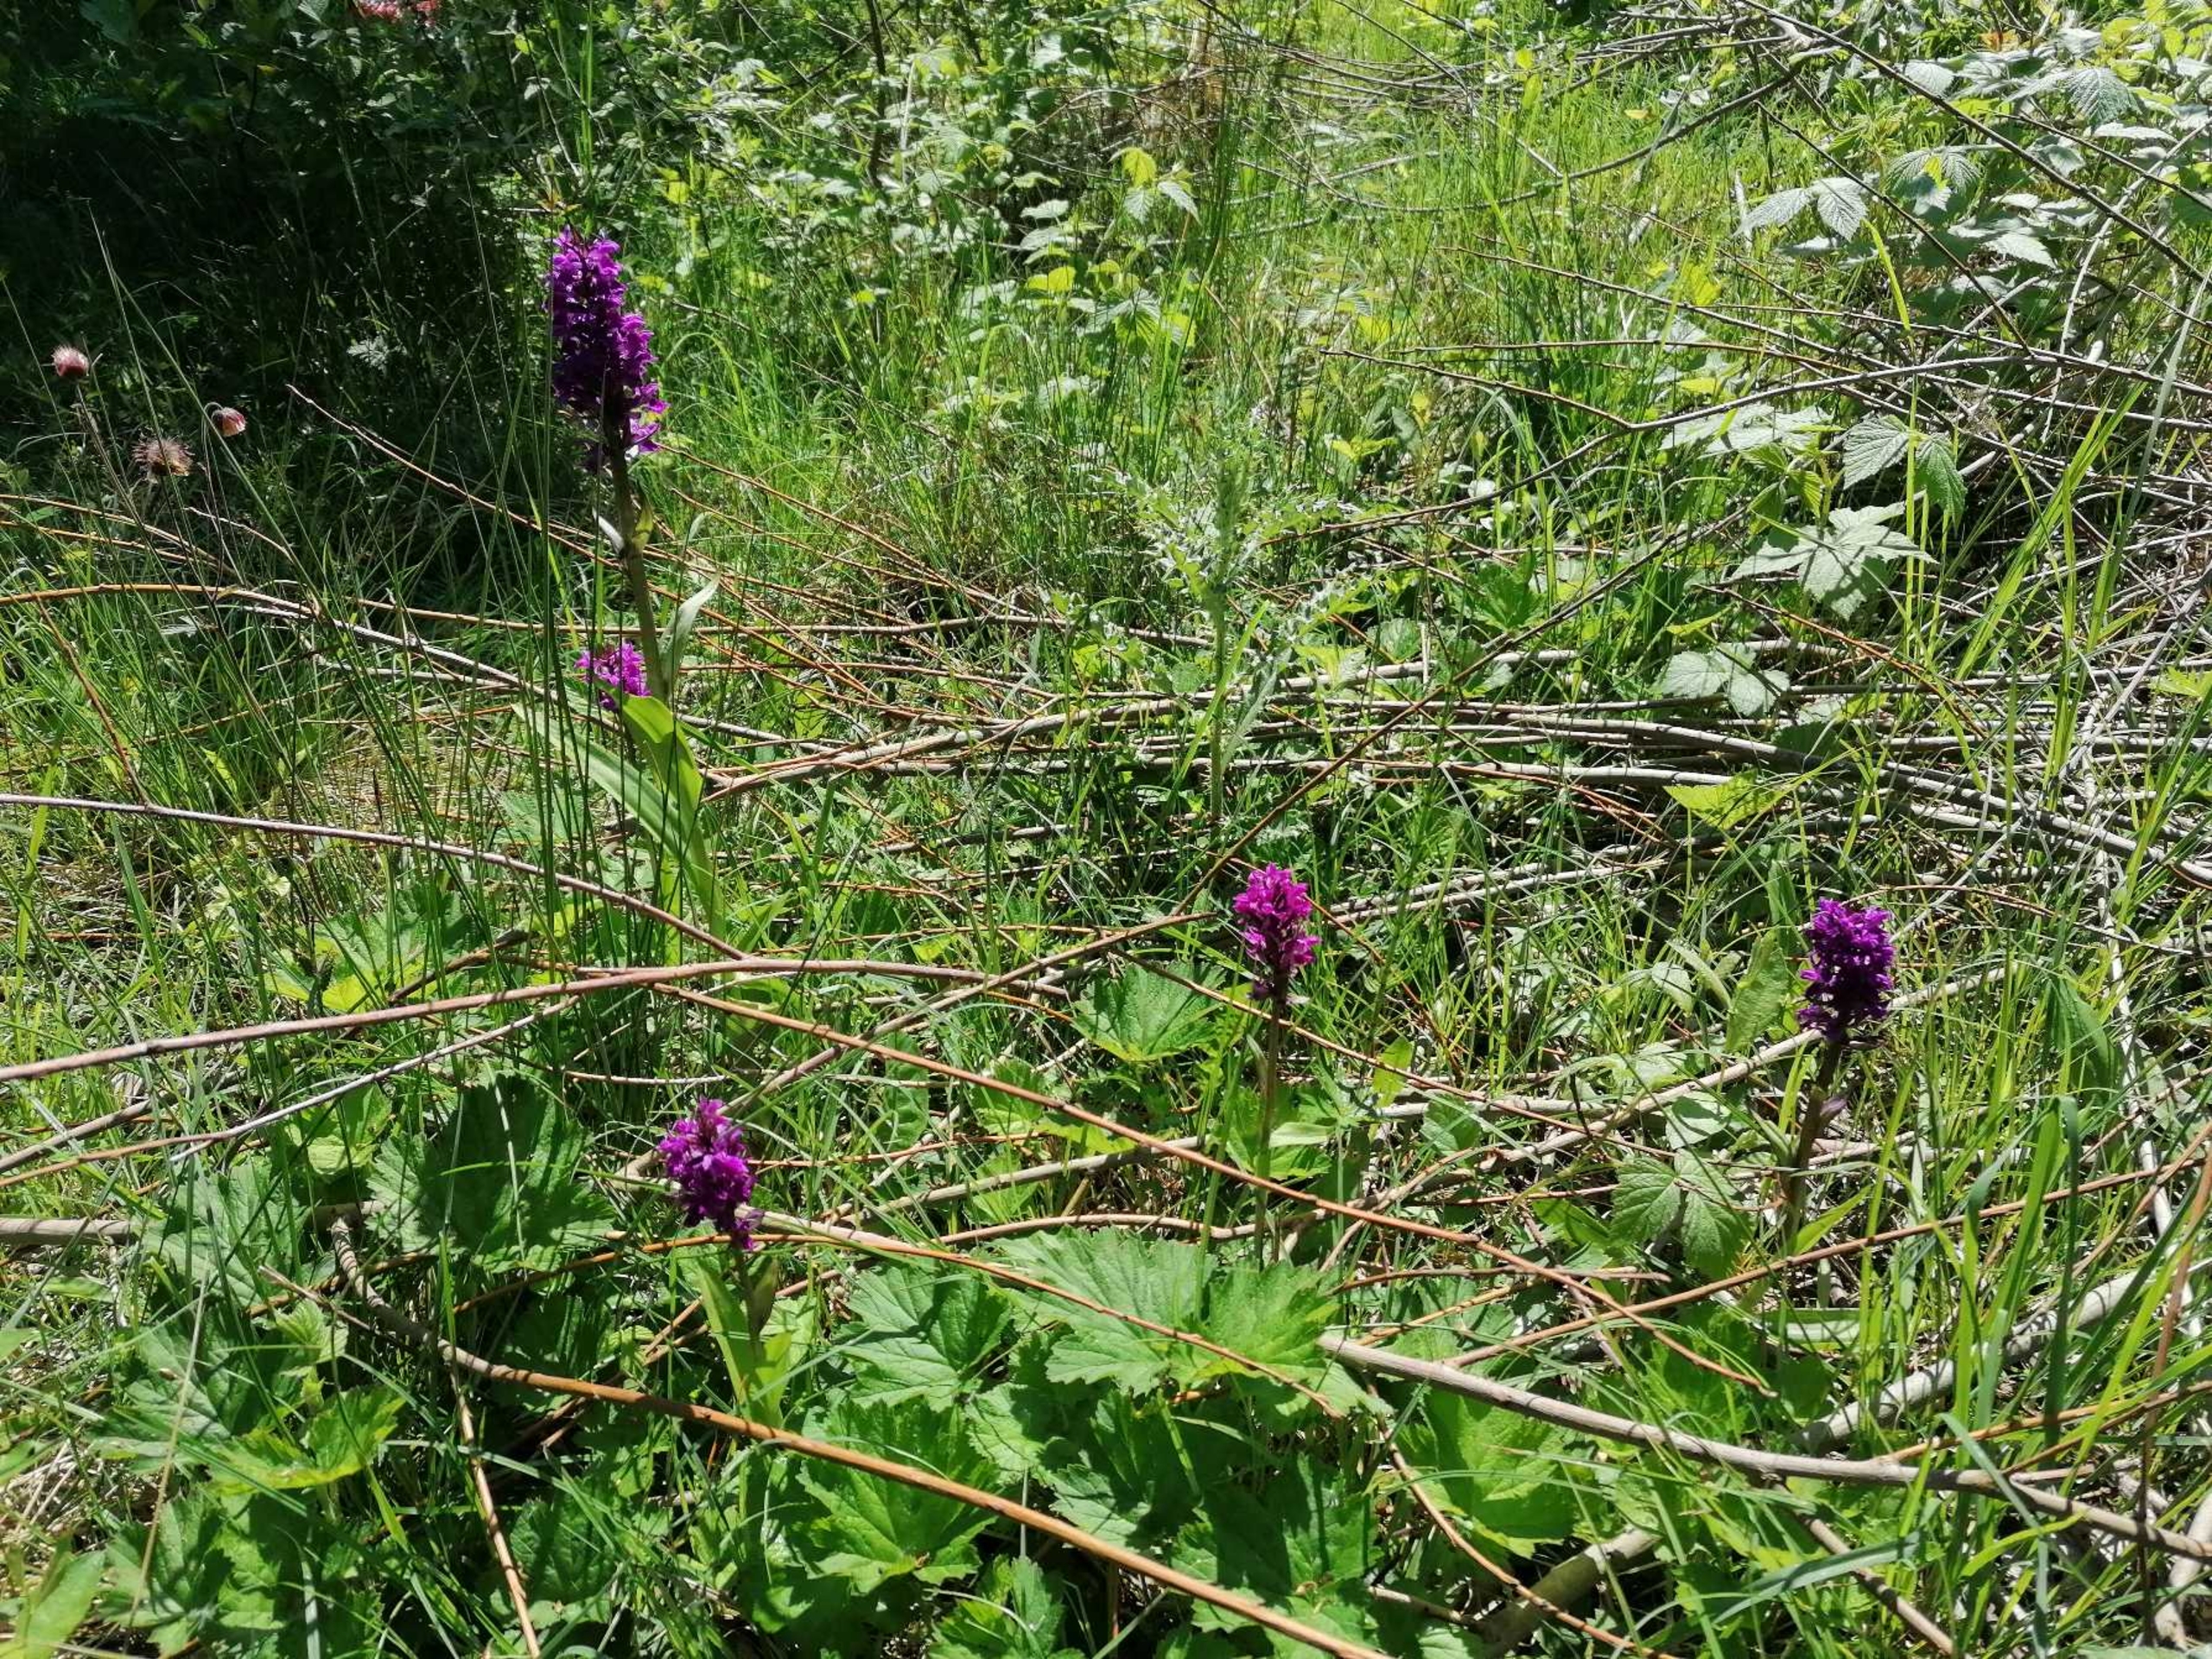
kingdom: Plantae
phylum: Tracheophyta
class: Liliopsida
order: Asparagales
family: Orchidaceae
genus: Dactylorhiza
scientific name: Dactylorhiza majalis
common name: Maj-gøgeurt
